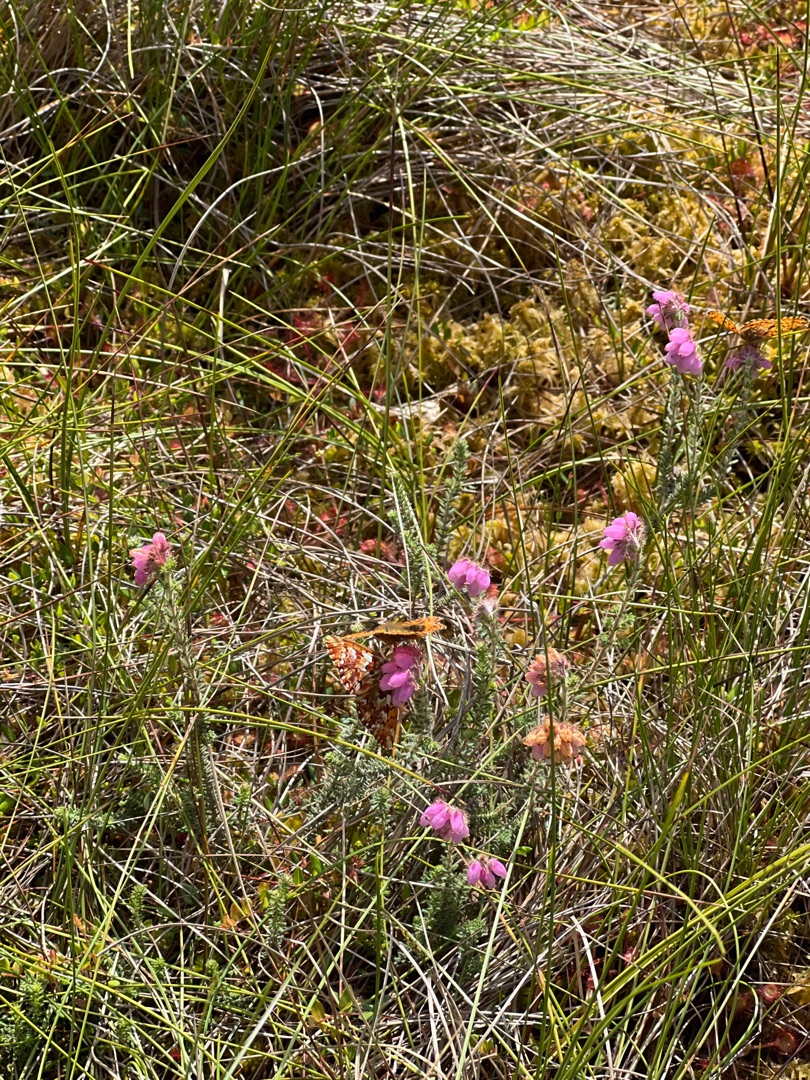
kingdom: Animalia
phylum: Arthropoda
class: Insecta
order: Lepidoptera
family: Nymphalidae
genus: Boloria
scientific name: Boloria aquilonaris
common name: Moseperlemorsommerfugl
